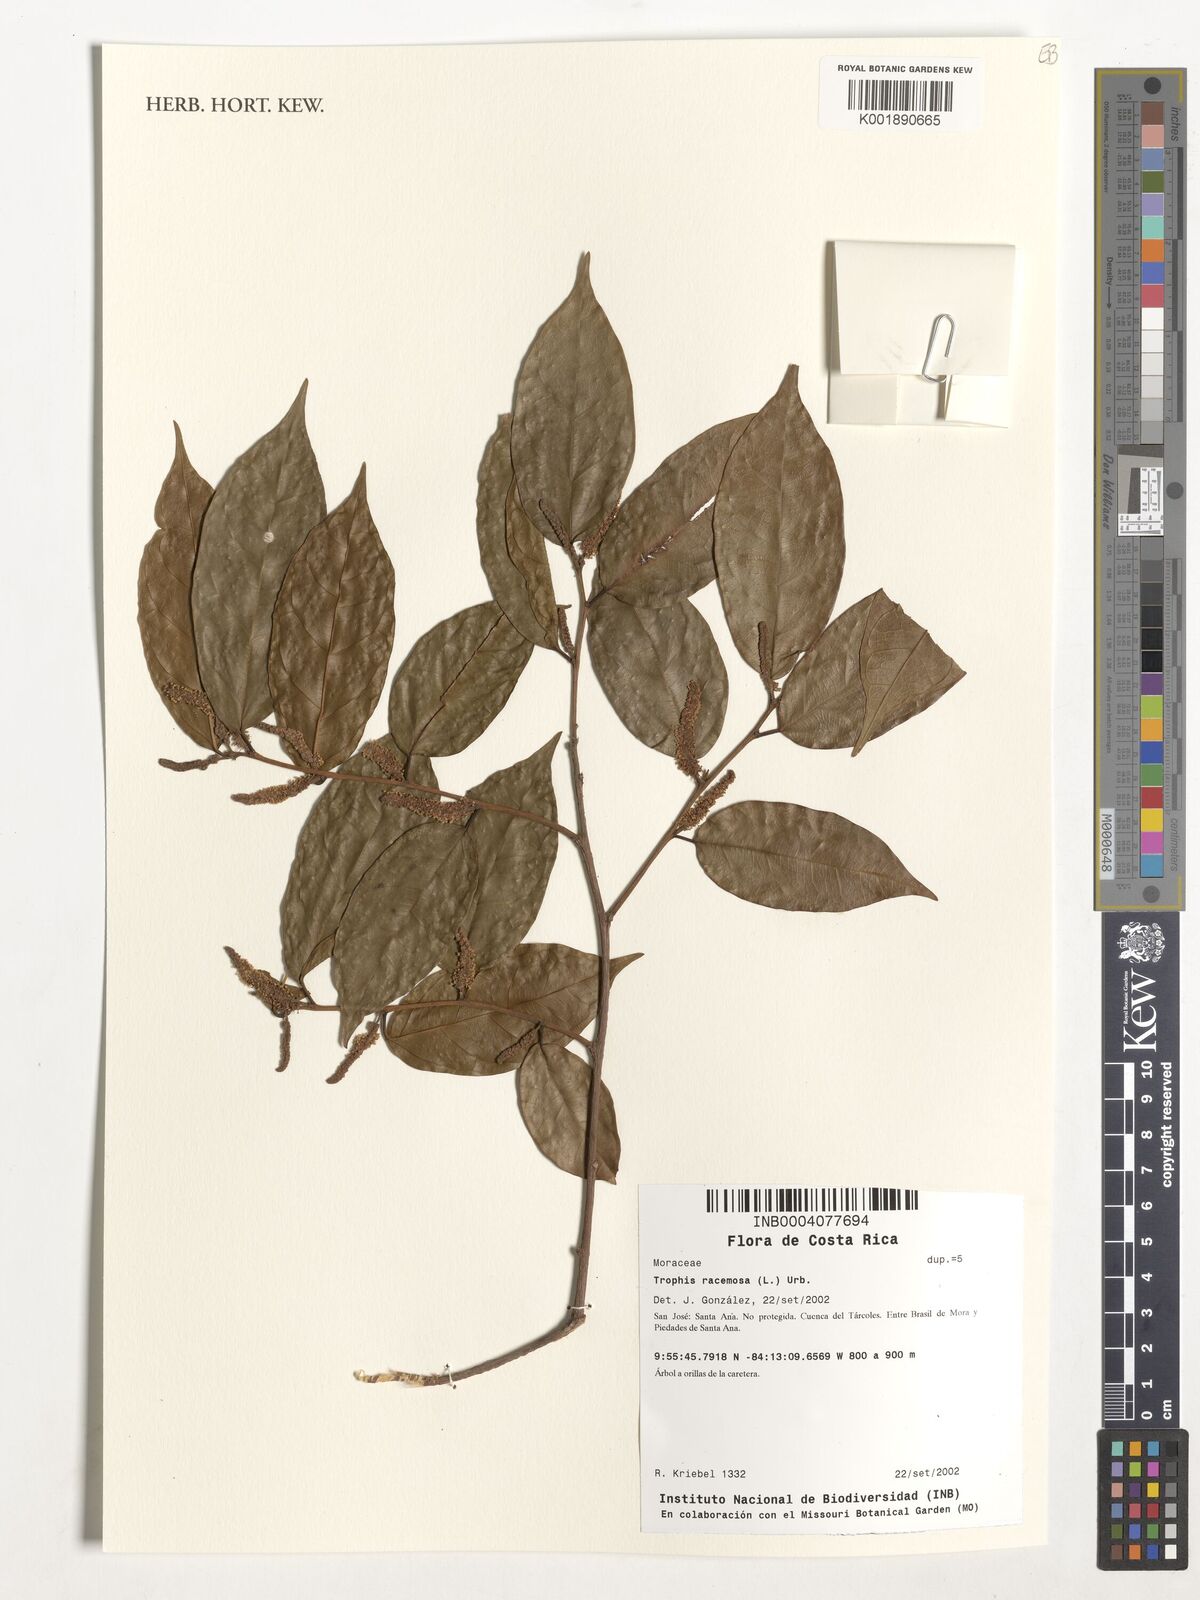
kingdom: Plantae
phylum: Tracheophyta
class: Magnoliopsida
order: Rosales
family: Moraceae
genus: Trophis
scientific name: Trophis racemosa
